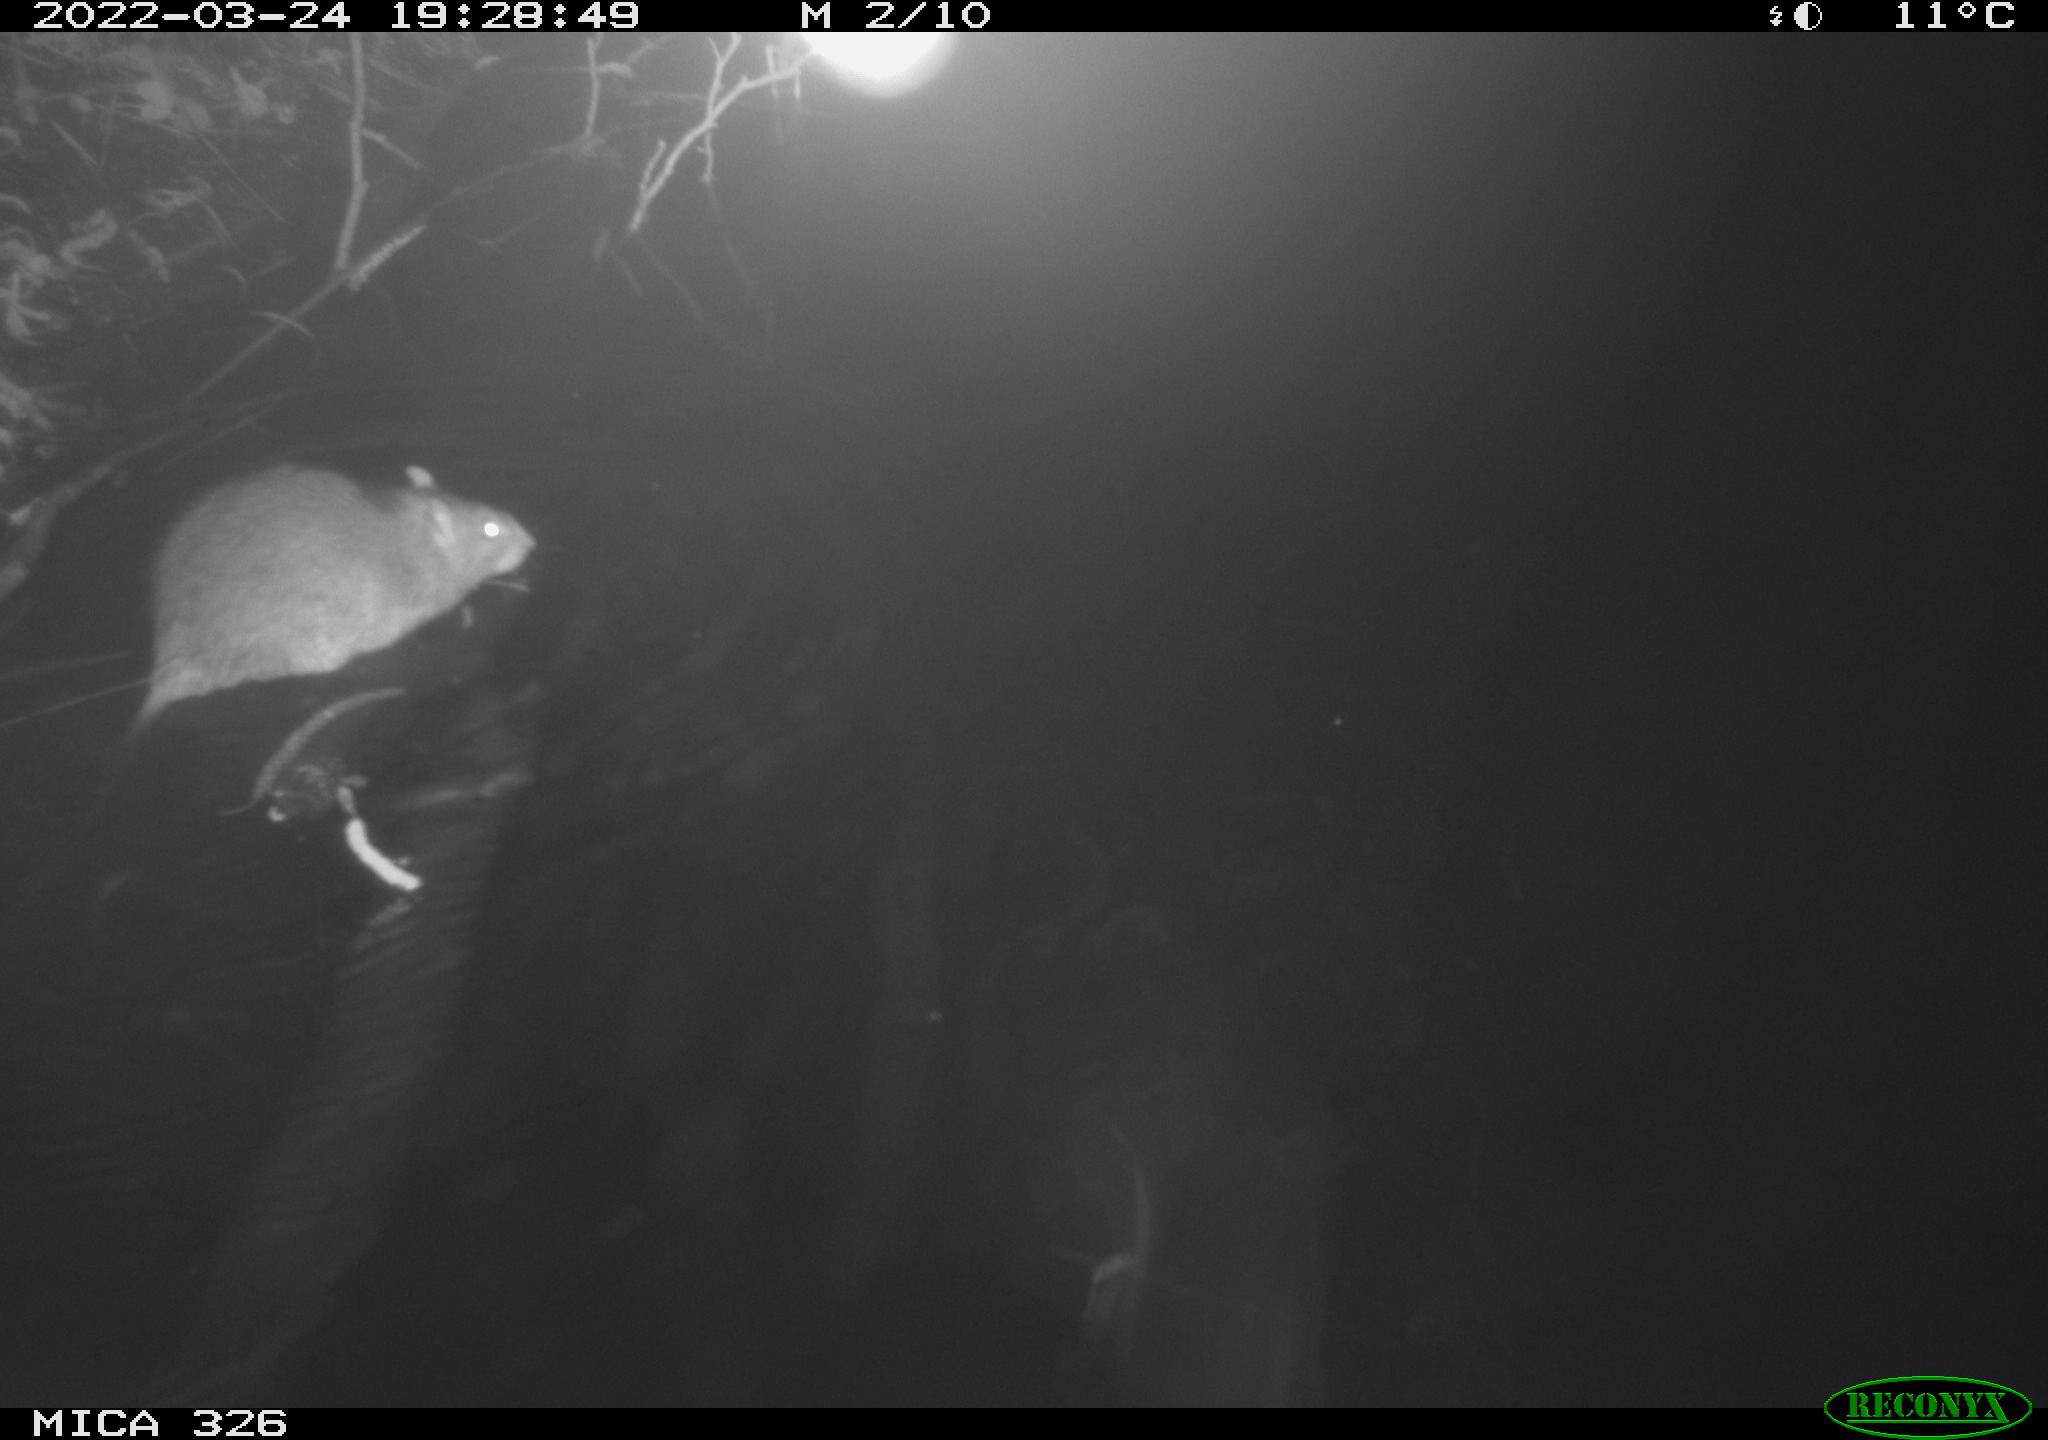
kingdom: Animalia
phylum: Chordata
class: Mammalia
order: Rodentia
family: Muridae
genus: Rattus
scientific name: Rattus norvegicus
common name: Brown rat
